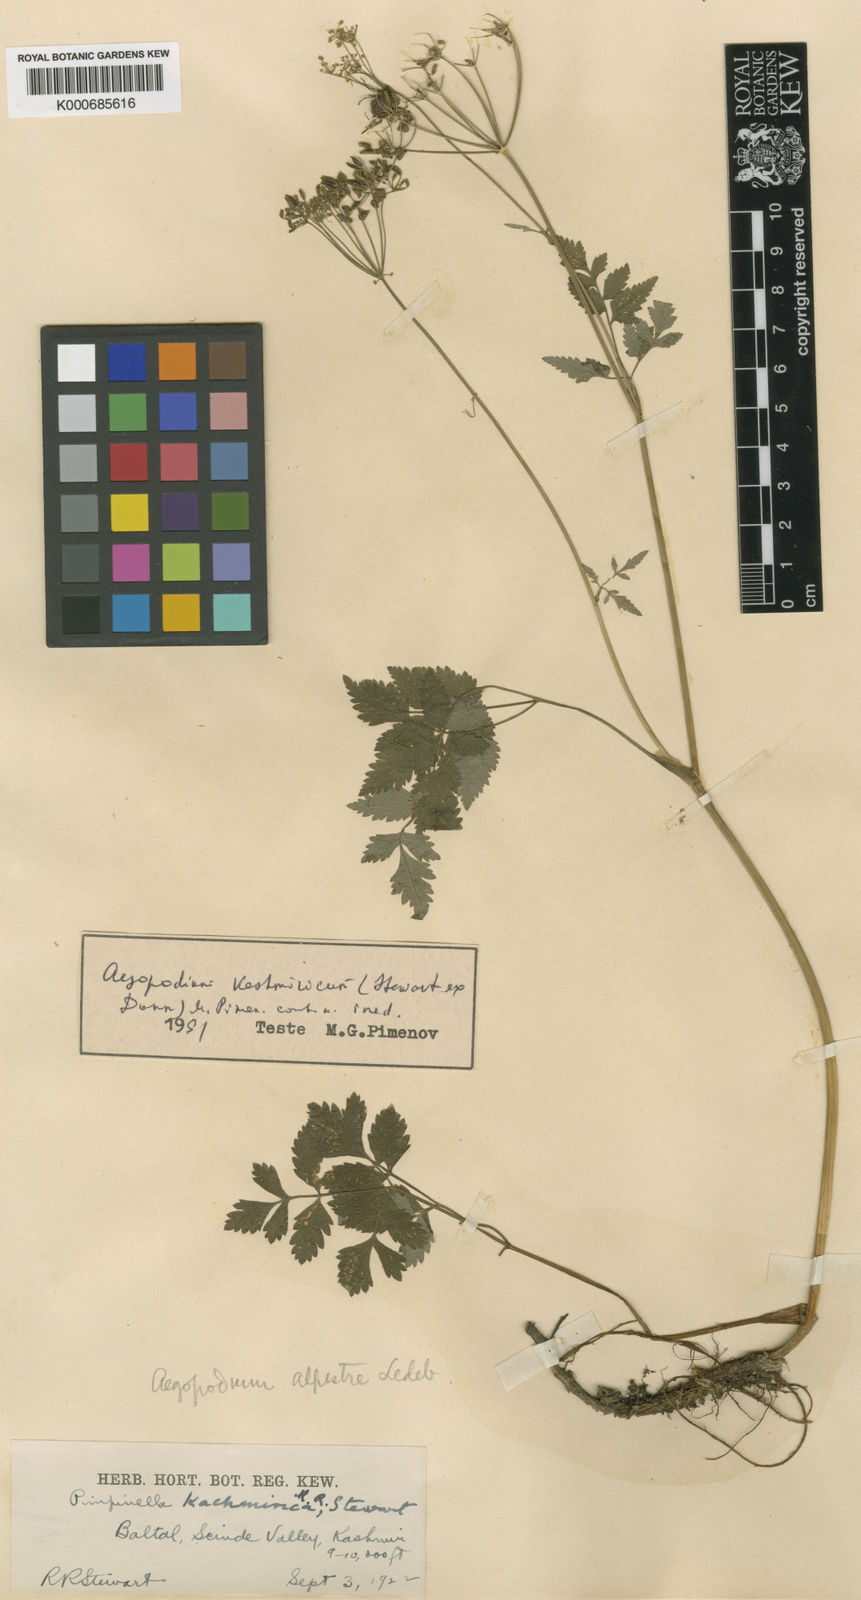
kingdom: Plantae
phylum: Tracheophyta
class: Magnoliopsida
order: Apiales
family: Apiaceae
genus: Aegopodium
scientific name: Aegopodium kashmiricum
